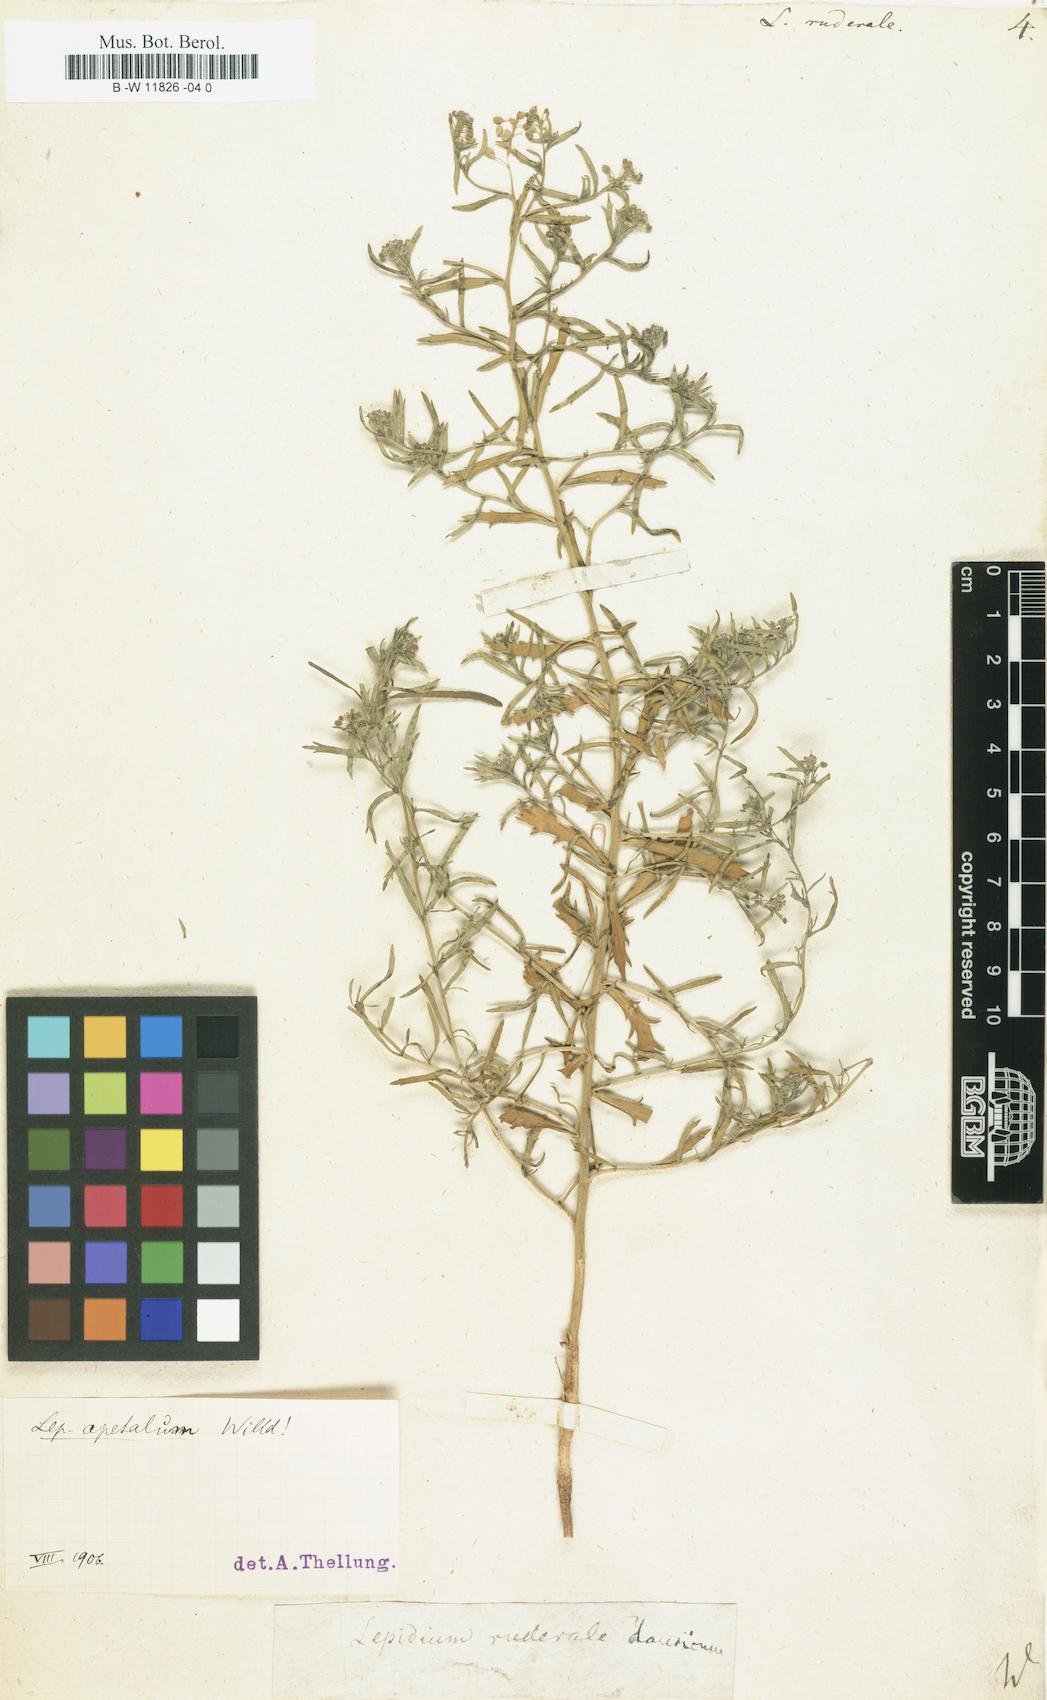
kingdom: Plantae
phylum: Tracheophyta
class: Magnoliopsida
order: Brassicales
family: Brassicaceae
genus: Lepidium
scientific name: Lepidium ruderale
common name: Narrow-leaved pepperwort
